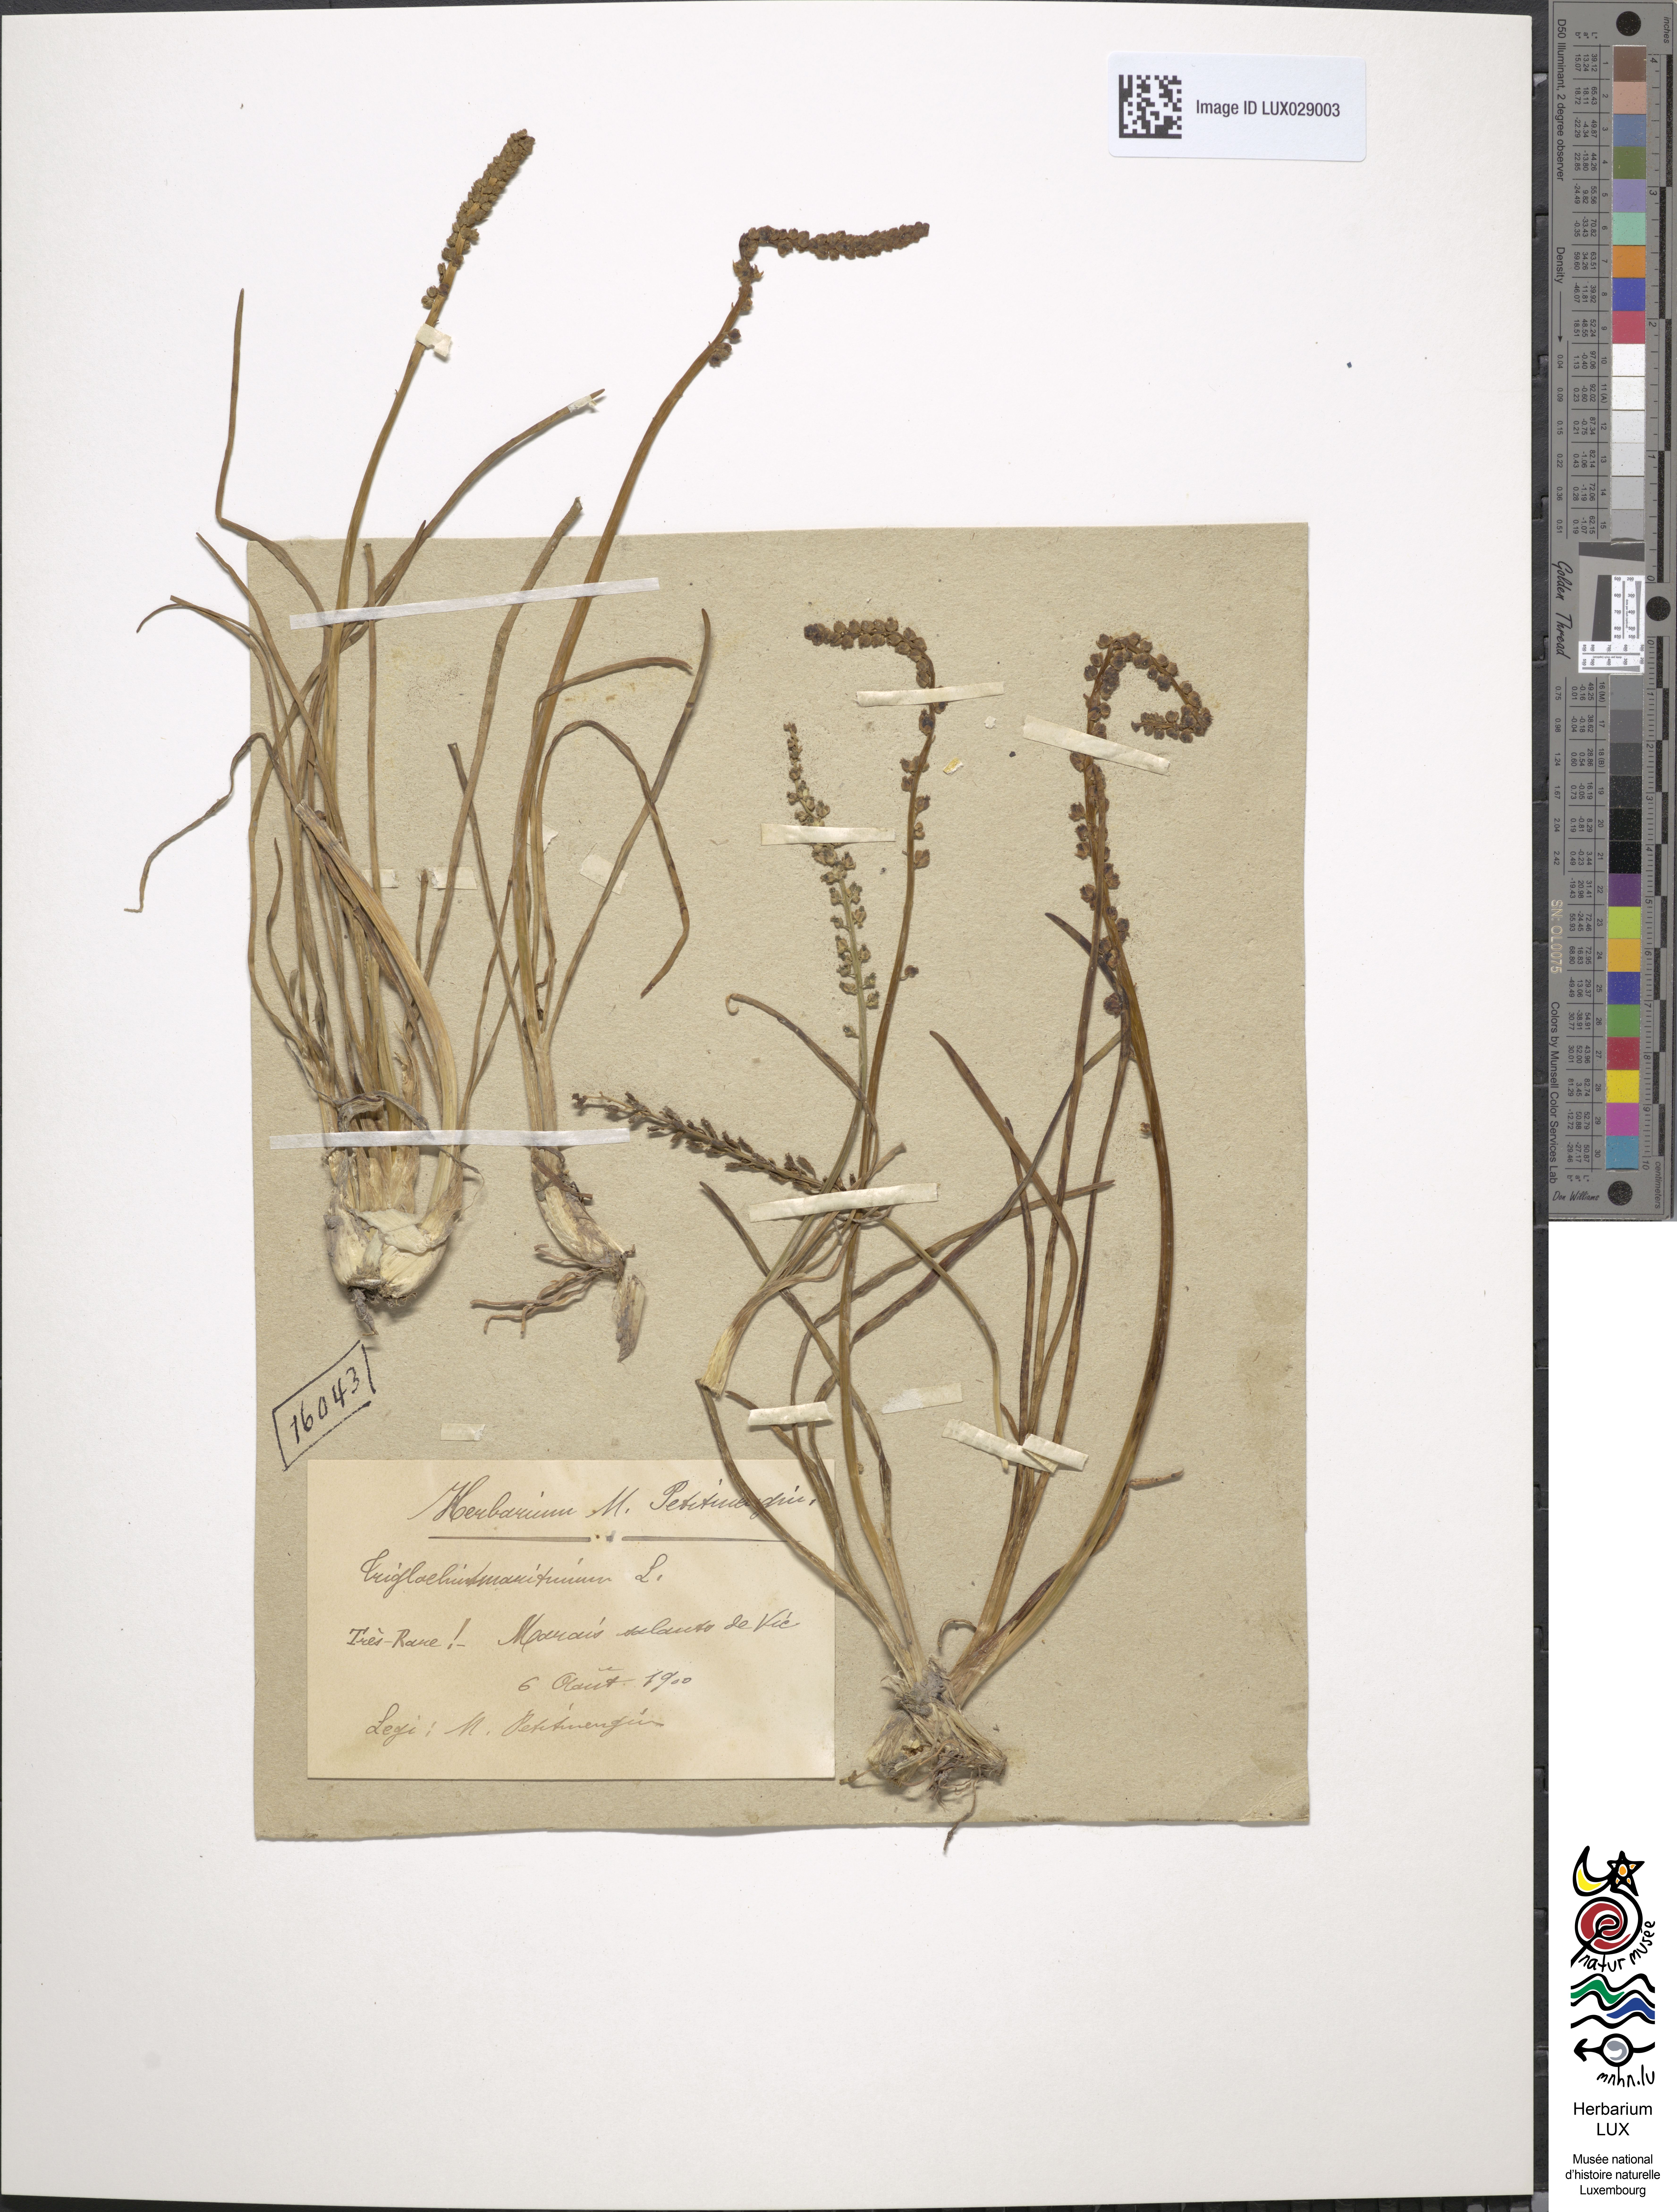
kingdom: Plantae
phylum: Tracheophyta
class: Liliopsida
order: Alismatales
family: Juncaginaceae
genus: Triglochin
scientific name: Triglochin maritima
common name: Sea arrowgrass
